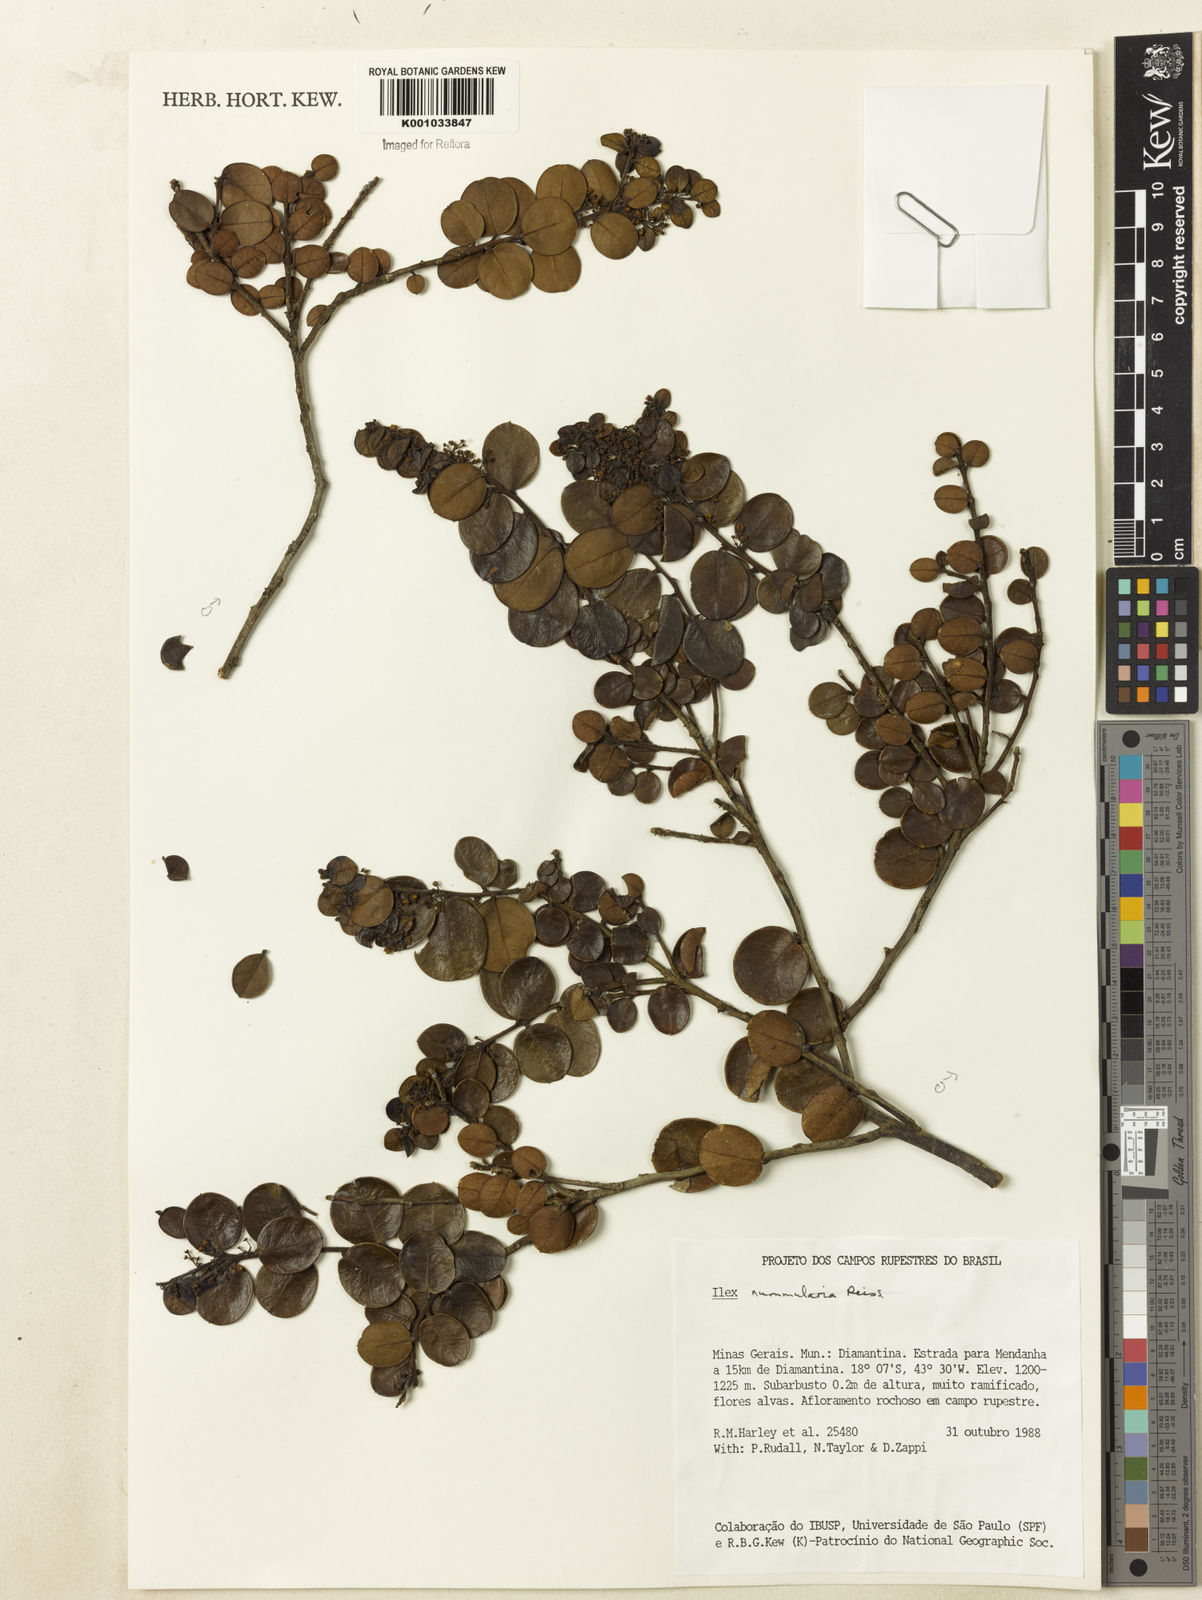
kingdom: Plantae
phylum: Tracheophyta
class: Magnoliopsida
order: Aquifoliales
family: Aquifoliaceae
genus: Ilex
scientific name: Ilex nummularia
